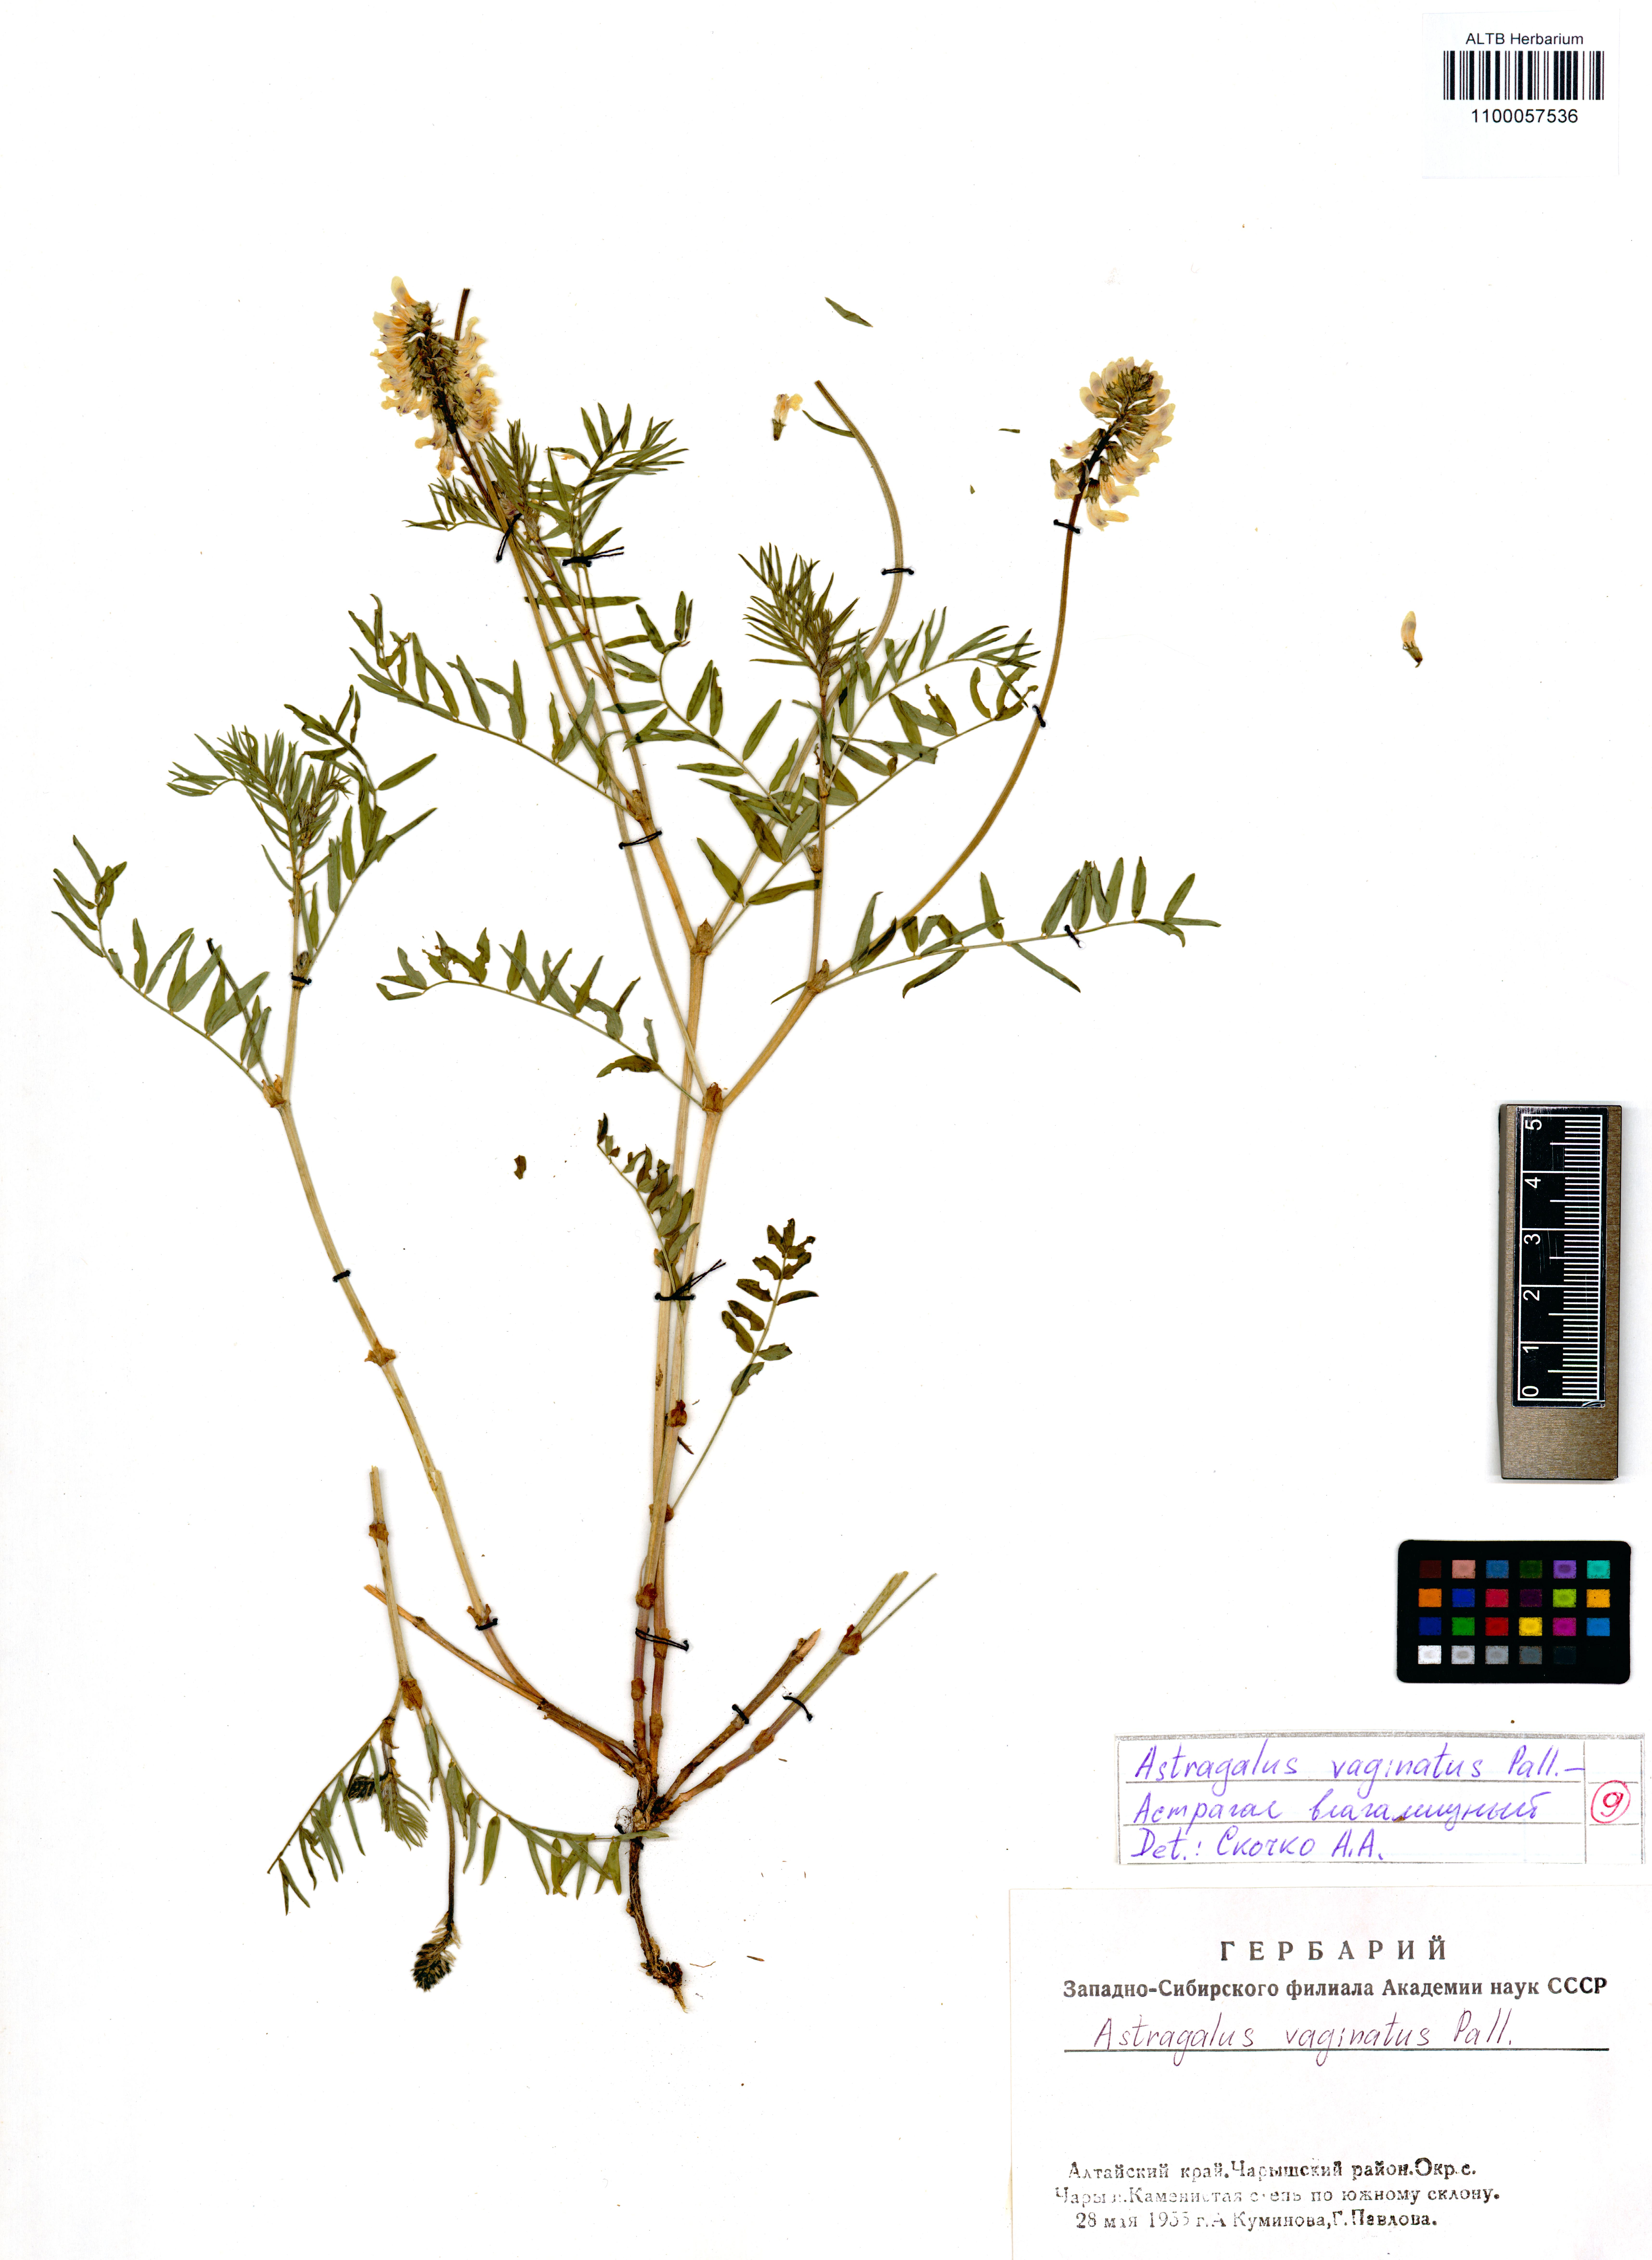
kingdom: Plantae
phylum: Tracheophyta
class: Magnoliopsida
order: Fabales
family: Fabaceae
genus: Astragalus
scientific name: Astragalus vaginatus
